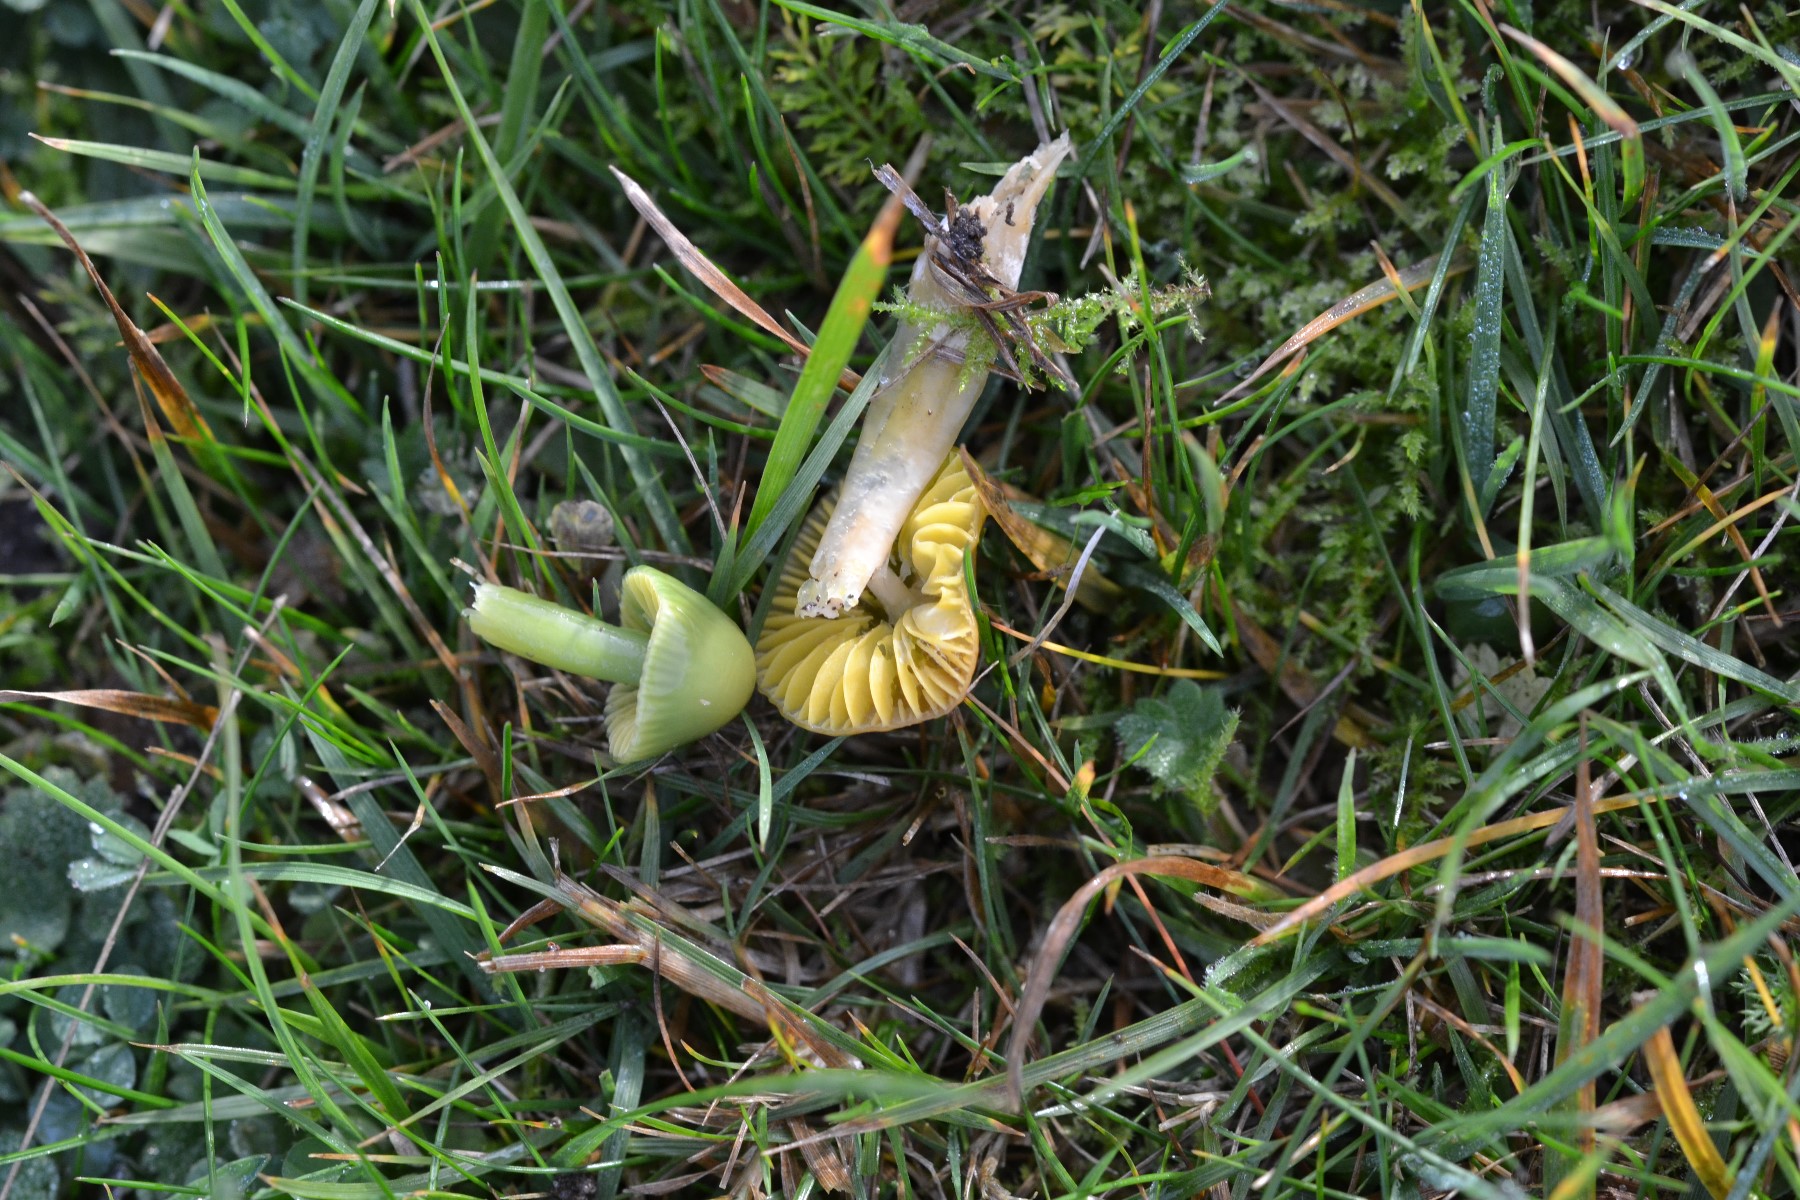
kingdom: Fungi
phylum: Basidiomycota
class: Agaricomycetes
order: Agaricales
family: Hygrophoraceae
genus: Gliophorus
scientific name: Gliophorus psittacinus
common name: papegøje-vokshat
